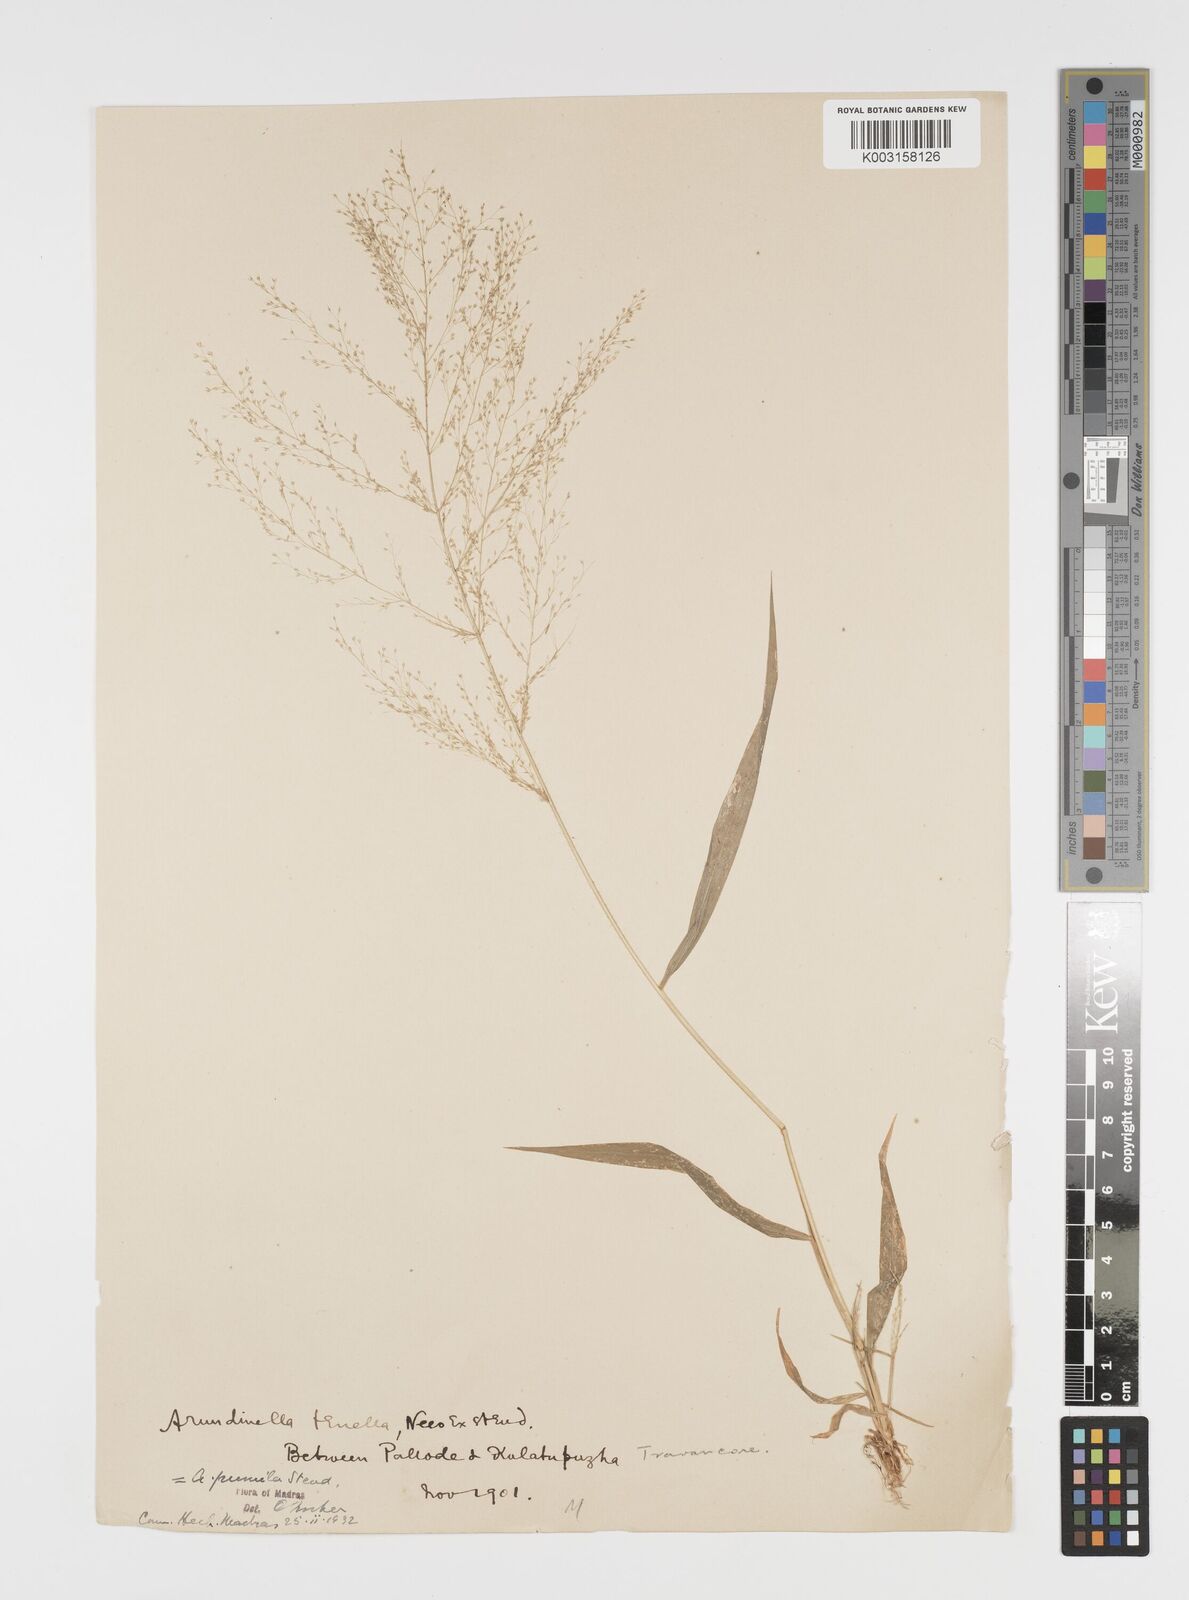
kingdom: Plantae
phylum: Tracheophyta
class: Liliopsida
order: Poales
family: Poaceae
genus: Arundinella
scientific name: Arundinella pumila
